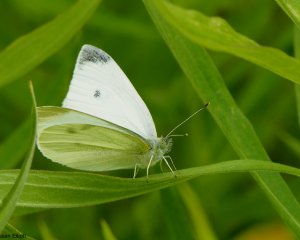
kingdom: Animalia
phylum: Arthropoda
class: Insecta
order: Lepidoptera
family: Pieridae
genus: Pieris
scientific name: Pieris rapae
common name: Cabbage White
